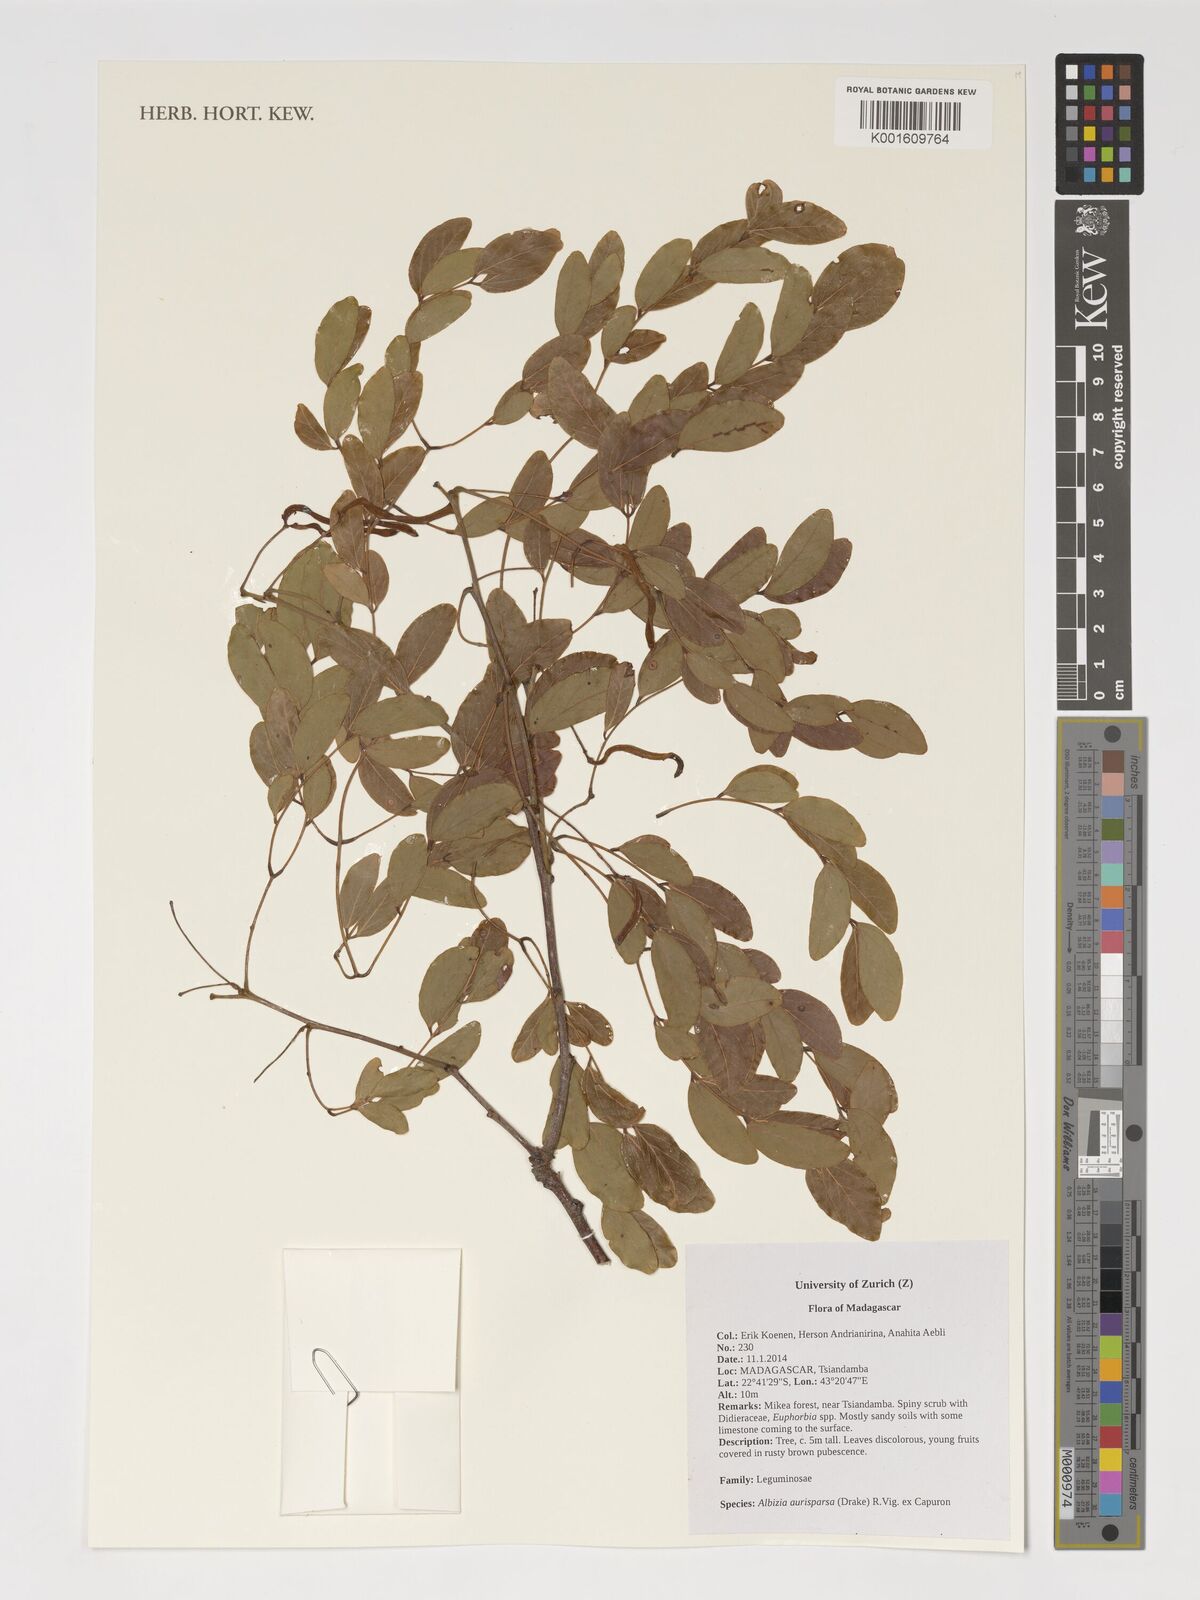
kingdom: Plantae
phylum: Tracheophyta
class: Magnoliopsida
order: Fabales
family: Fabaceae
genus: Albizia
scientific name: Albizia aurisparsa
